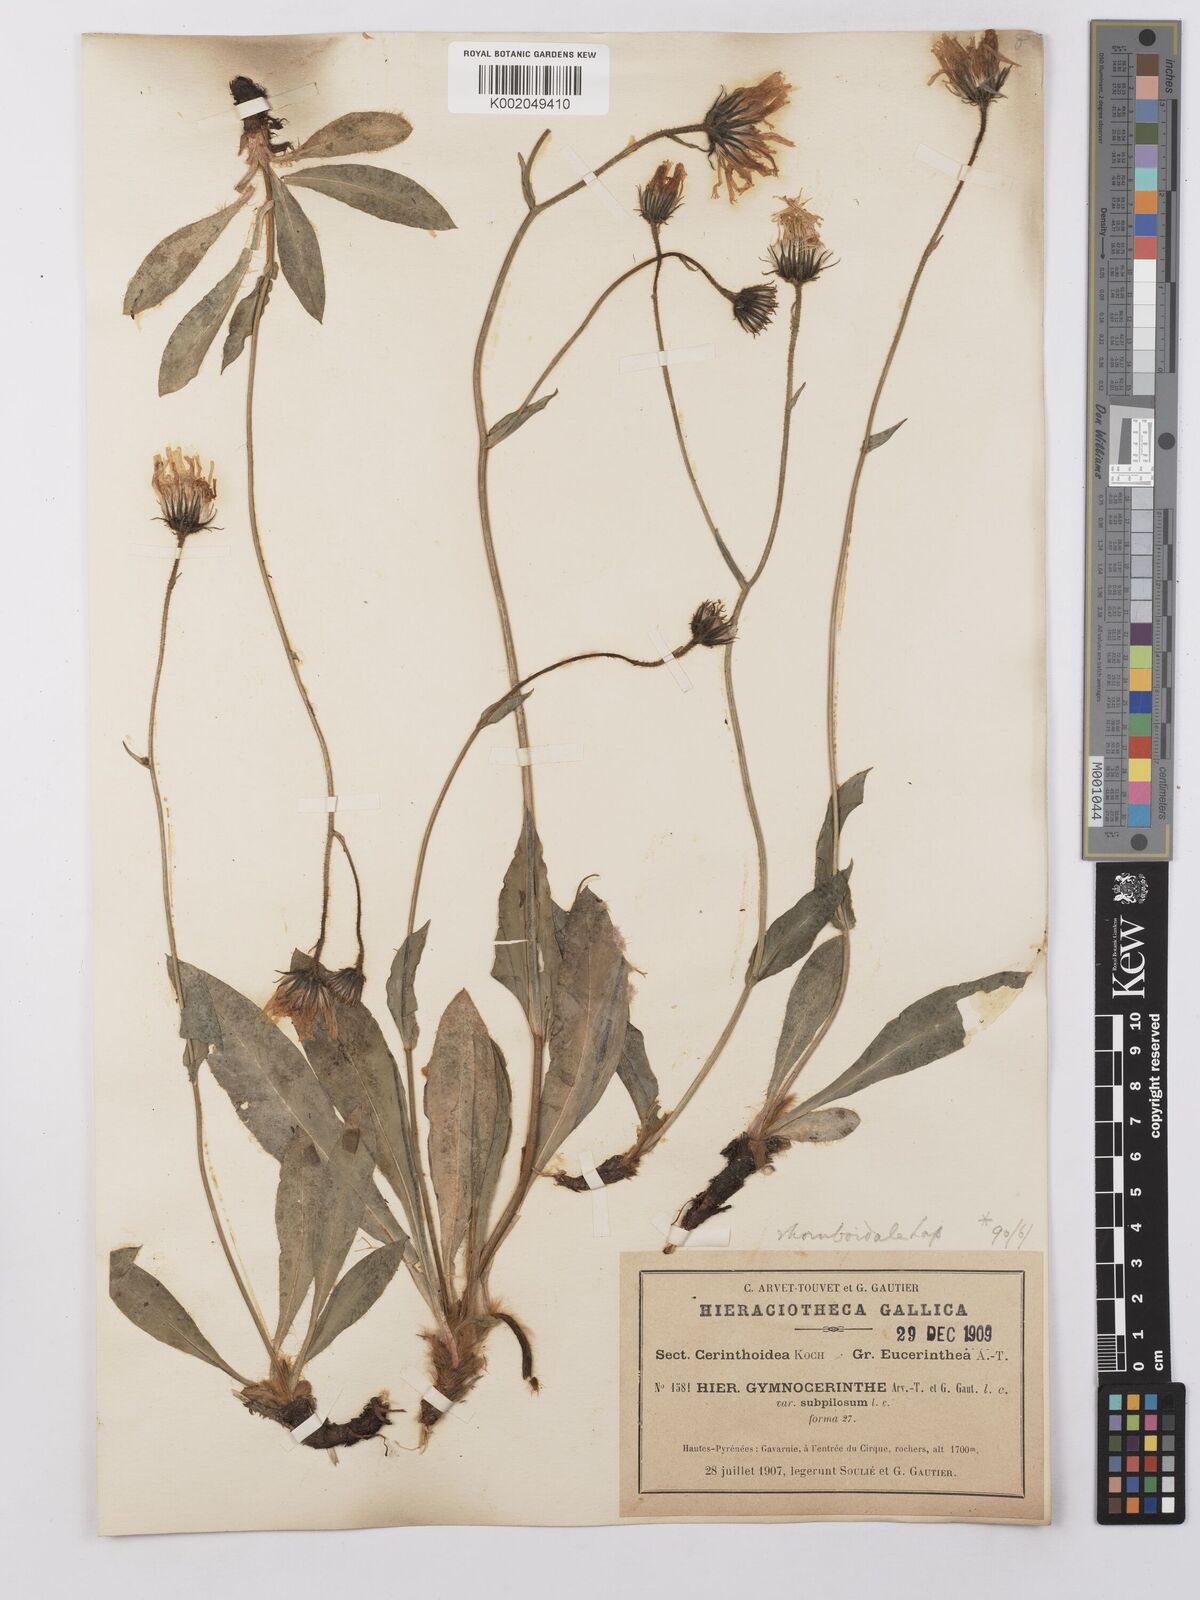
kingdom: Plantae
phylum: Tracheophyta
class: Magnoliopsida
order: Asterales
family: Asteraceae
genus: Hieracium
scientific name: Hieracium cerinthoides
